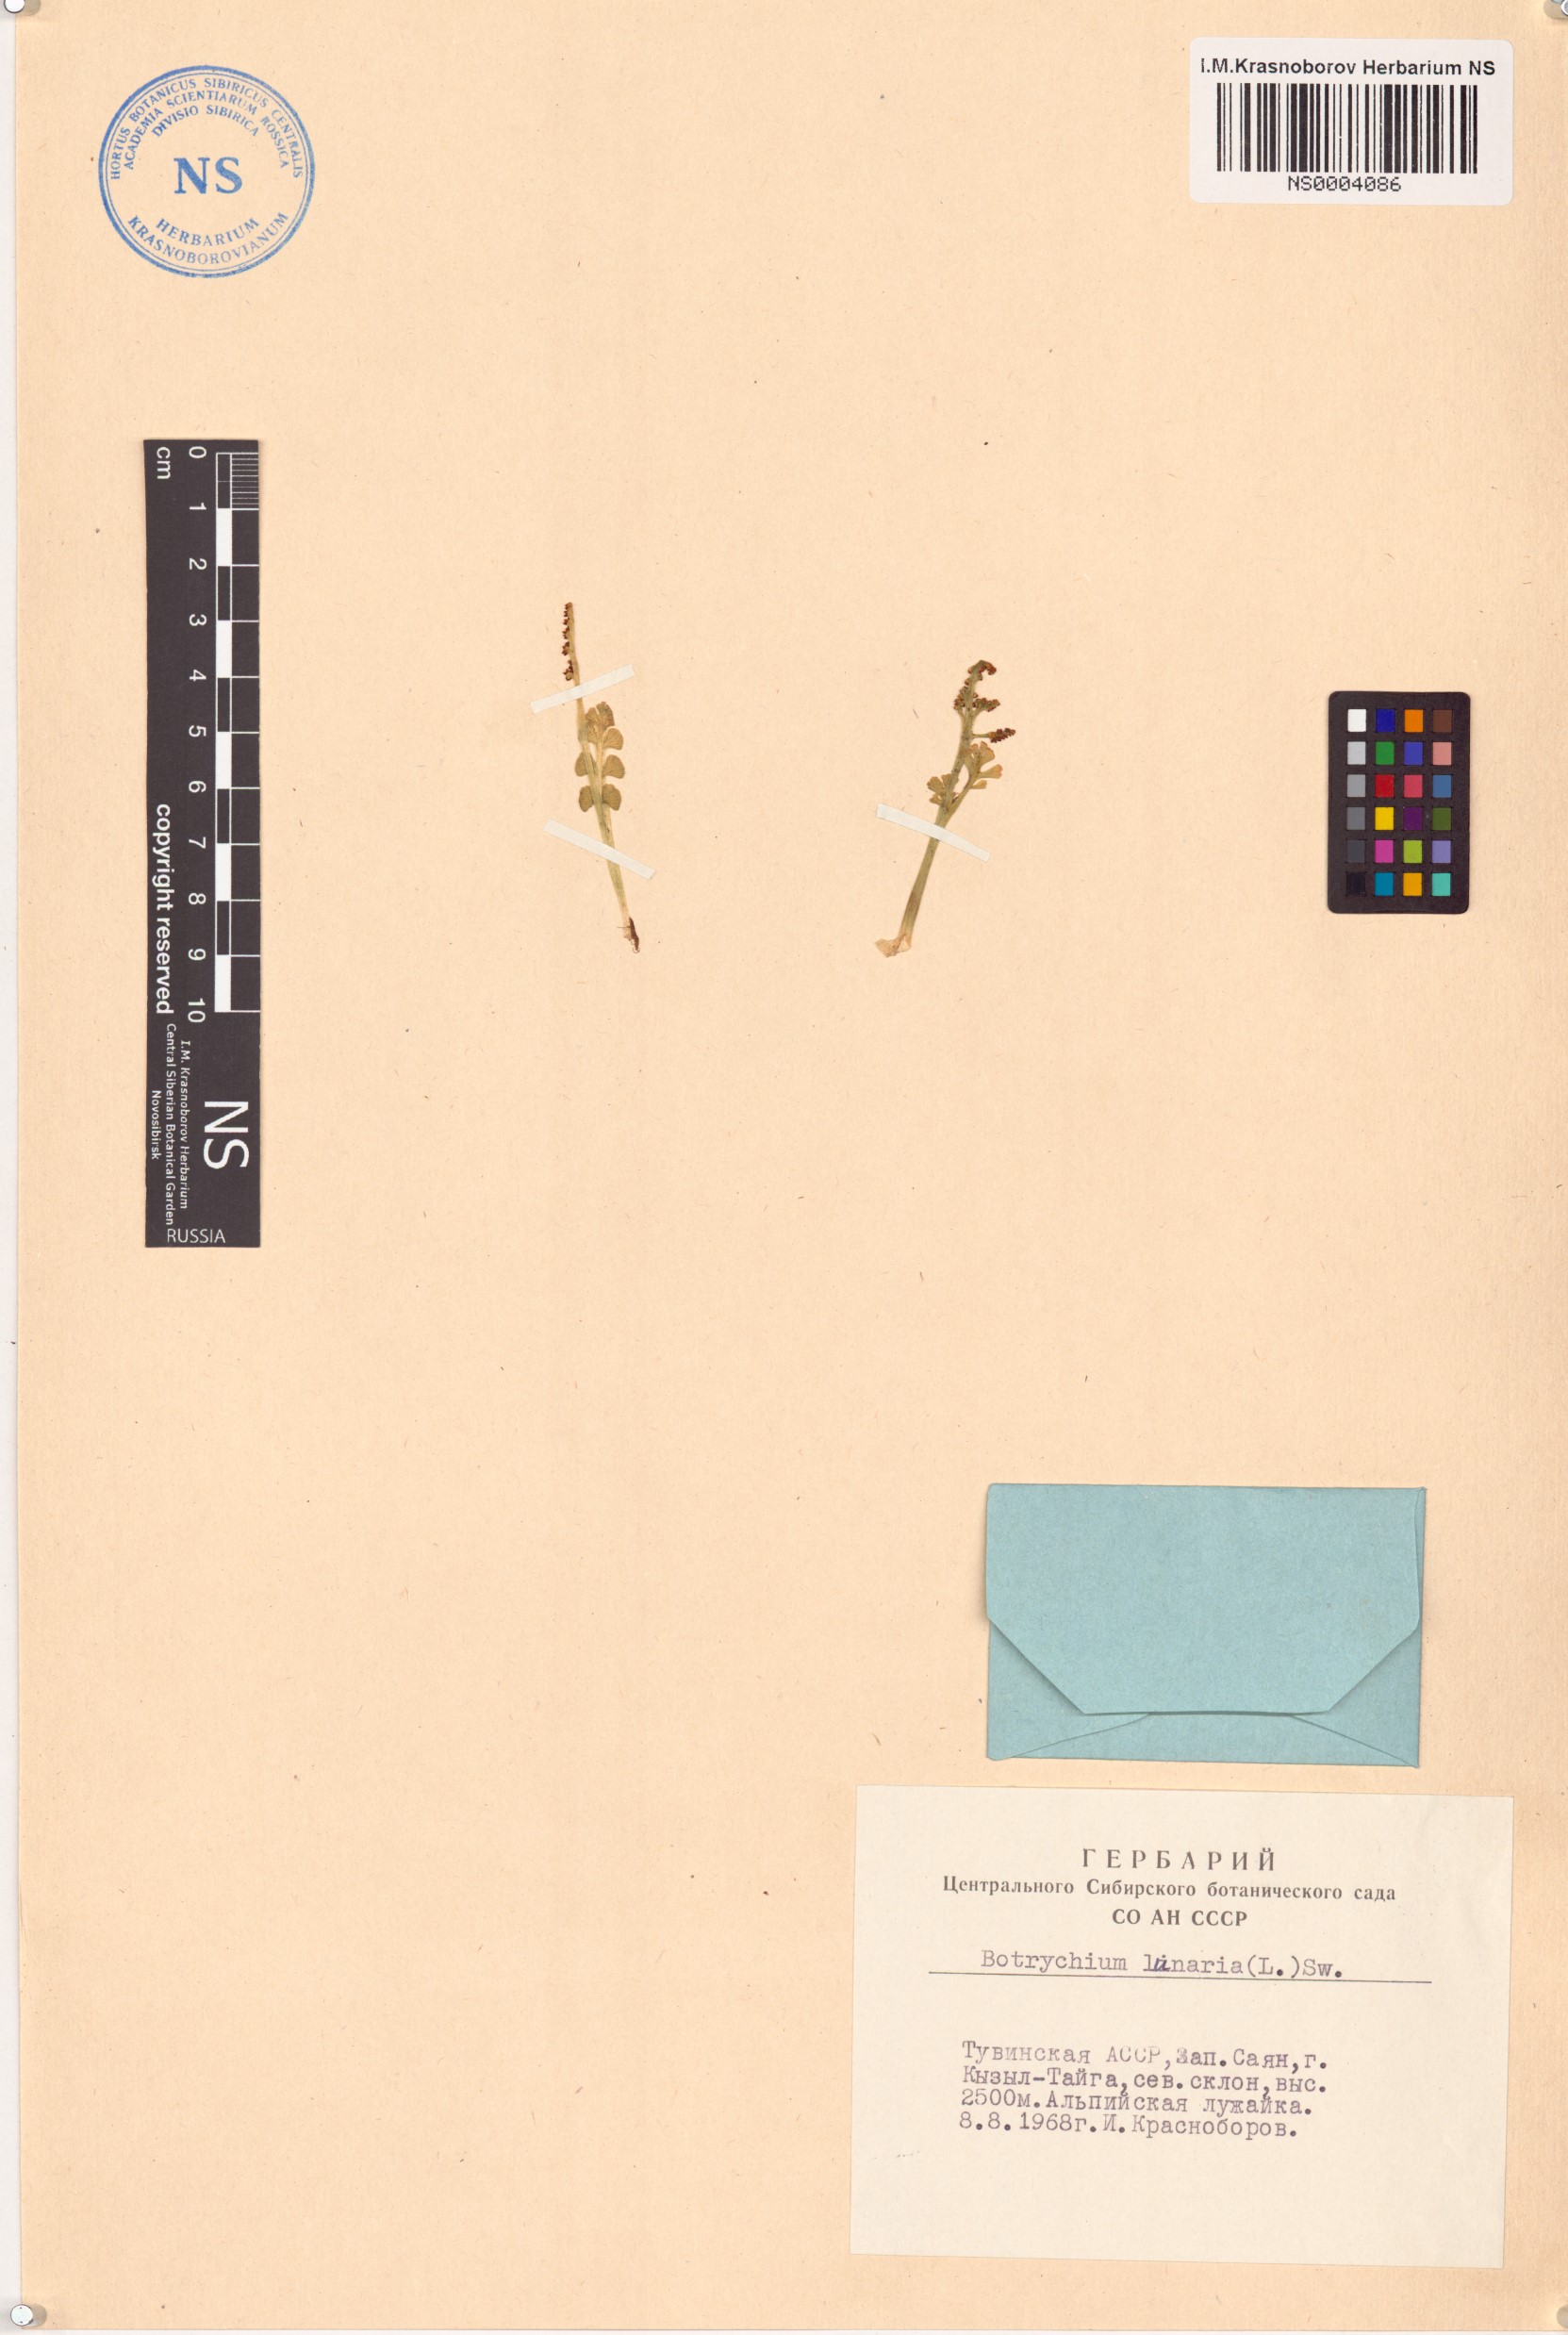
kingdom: Plantae
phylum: Tracheophyta
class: Polypodiopsida
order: Ophioglossales
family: Ophioglossaceae
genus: Botrychium
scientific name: Botrychium lunaria
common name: Moonwort
